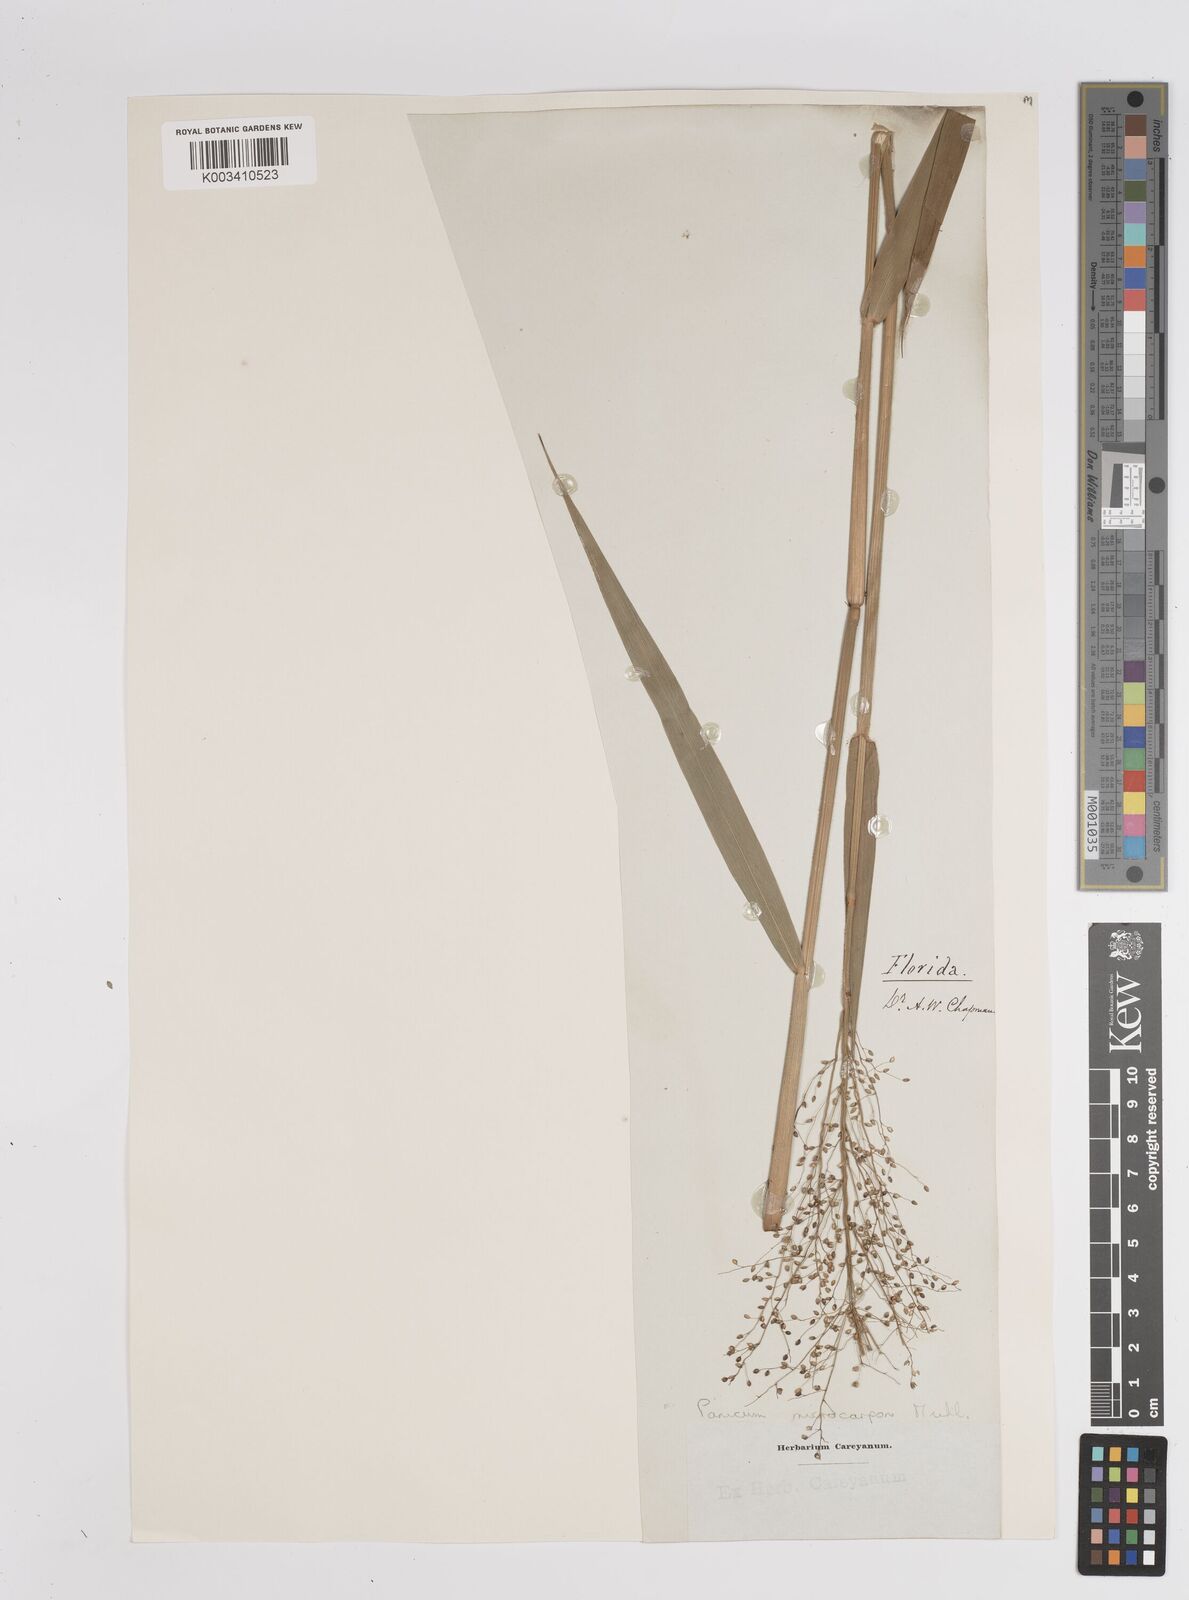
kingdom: Plantae
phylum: Tracheophyta
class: Liliopsida
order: Poales
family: Poaceae
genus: Dichanthelium
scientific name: Dichanthelium polyanthes
